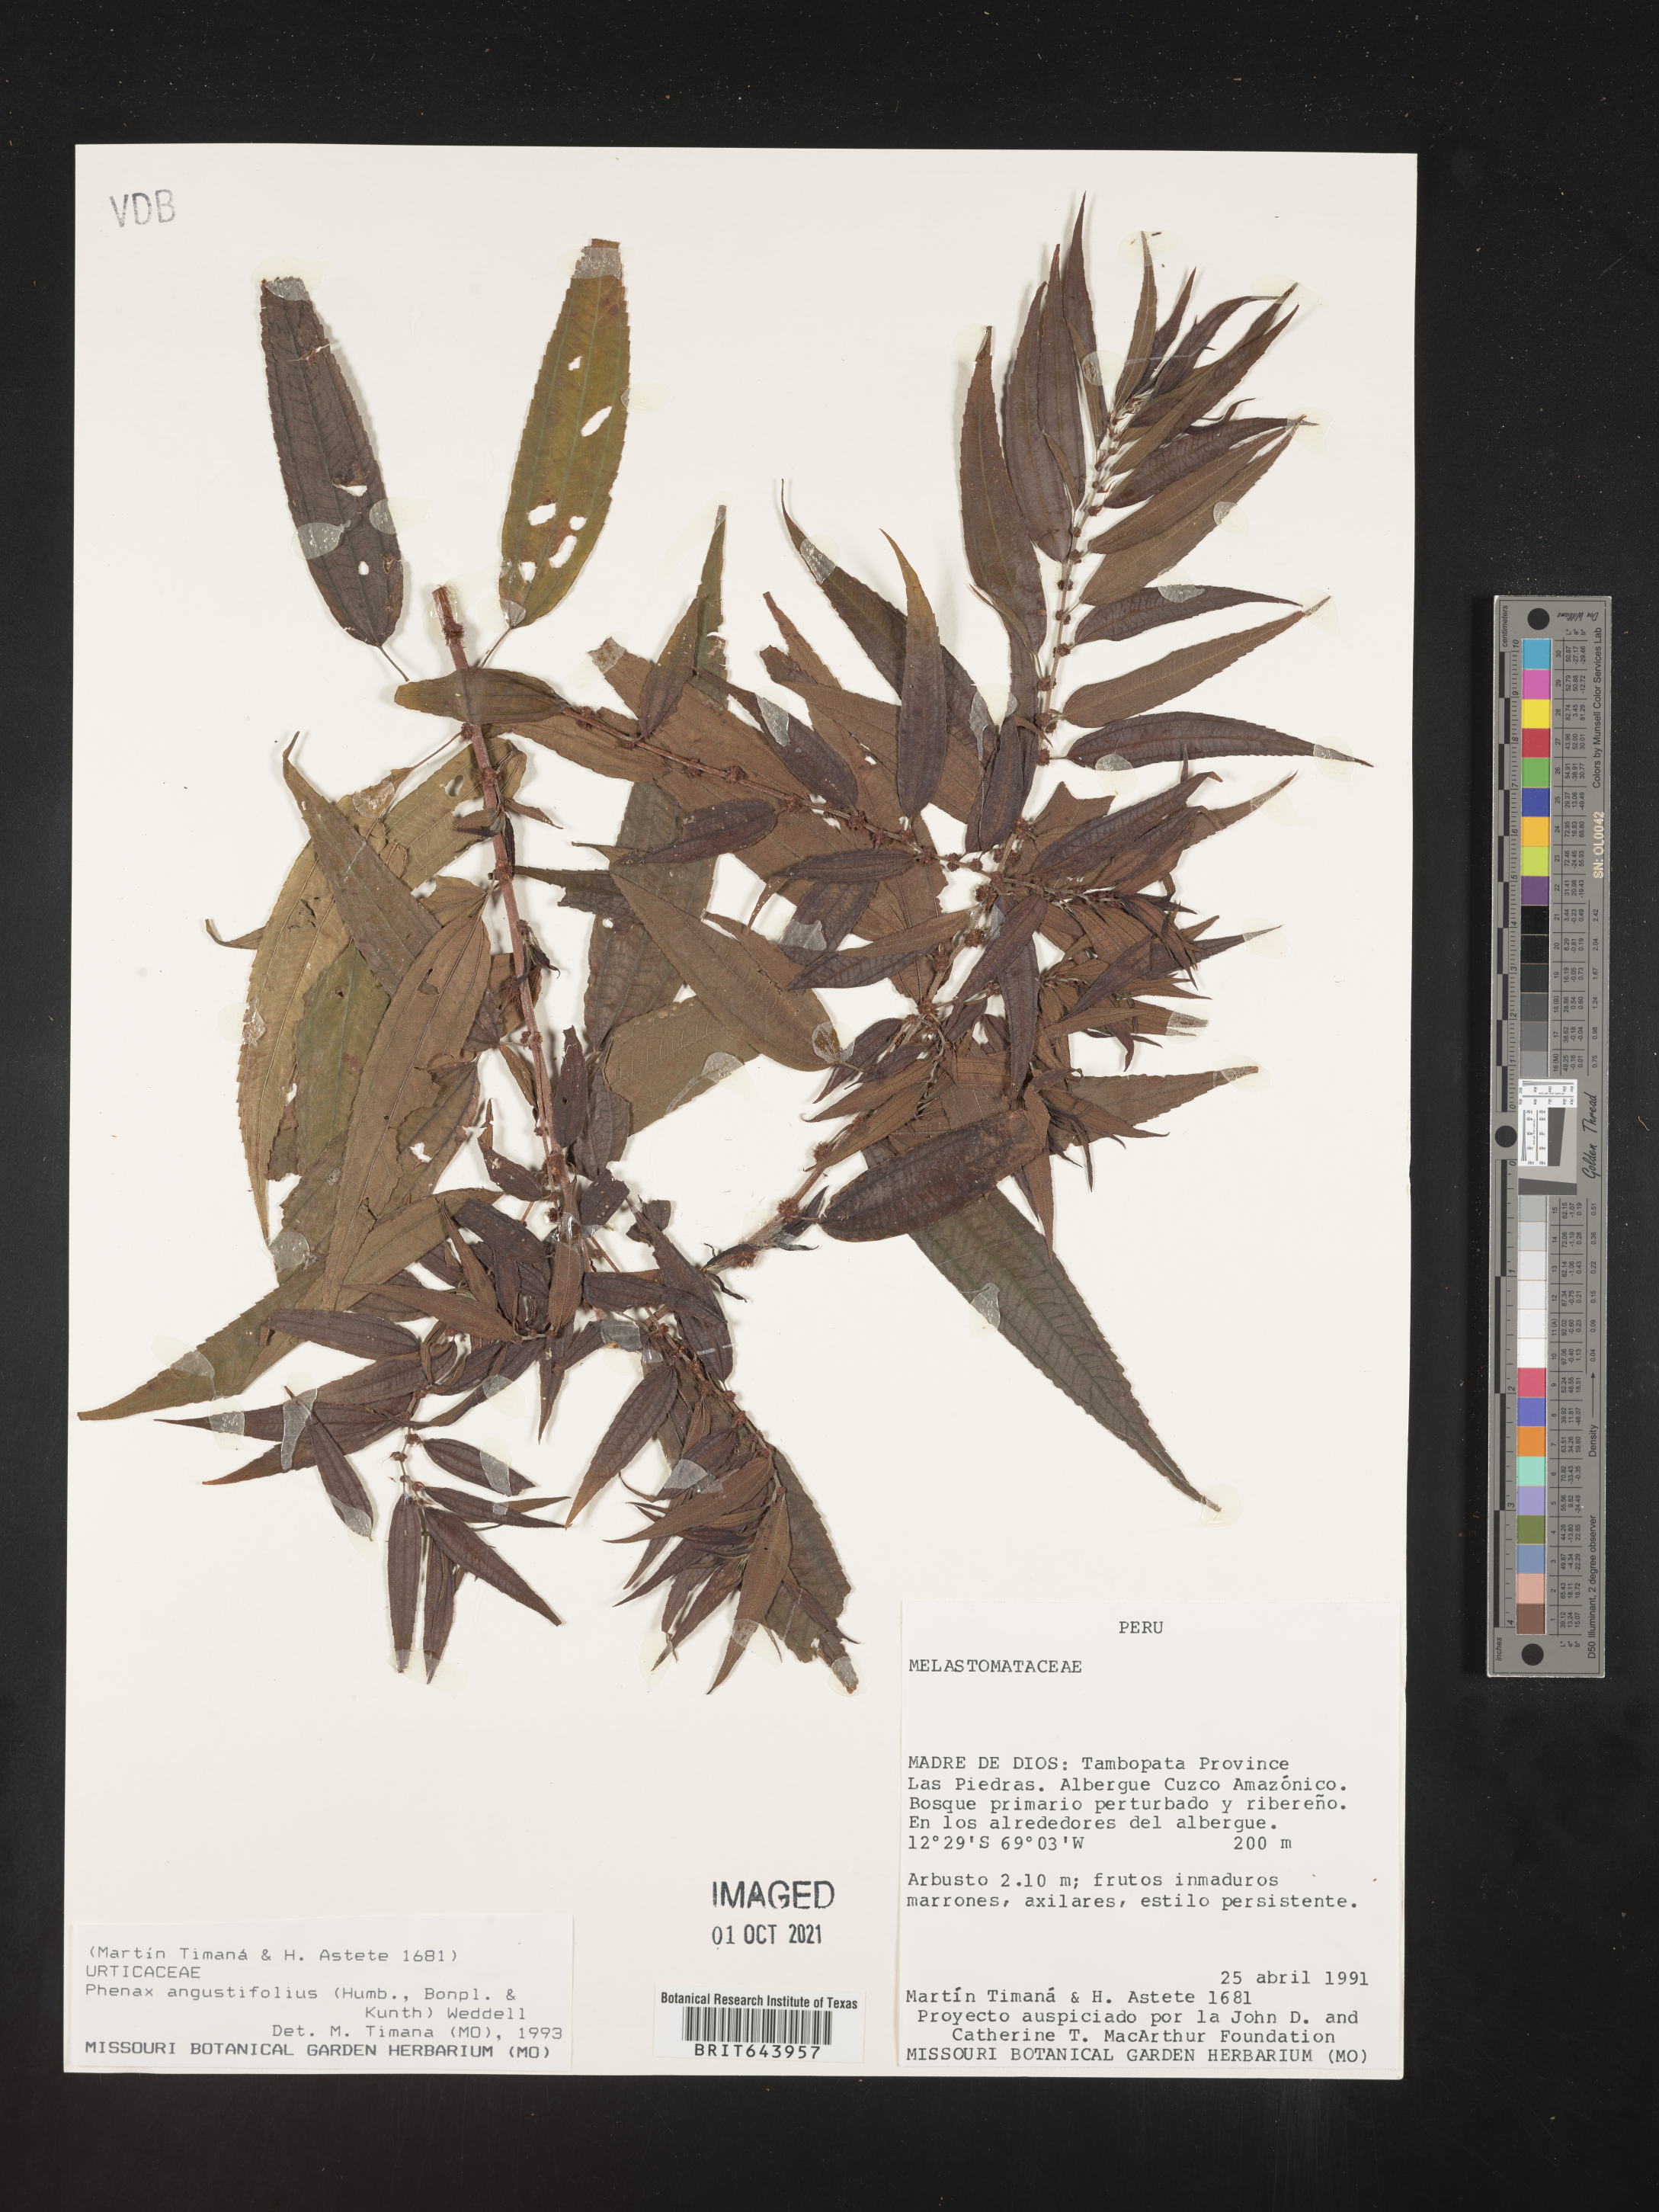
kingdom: Plantae
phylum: Tracheophyta
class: Magnoliopsida
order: Rosales
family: Urticaceae
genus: Phenax
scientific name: Phenax
